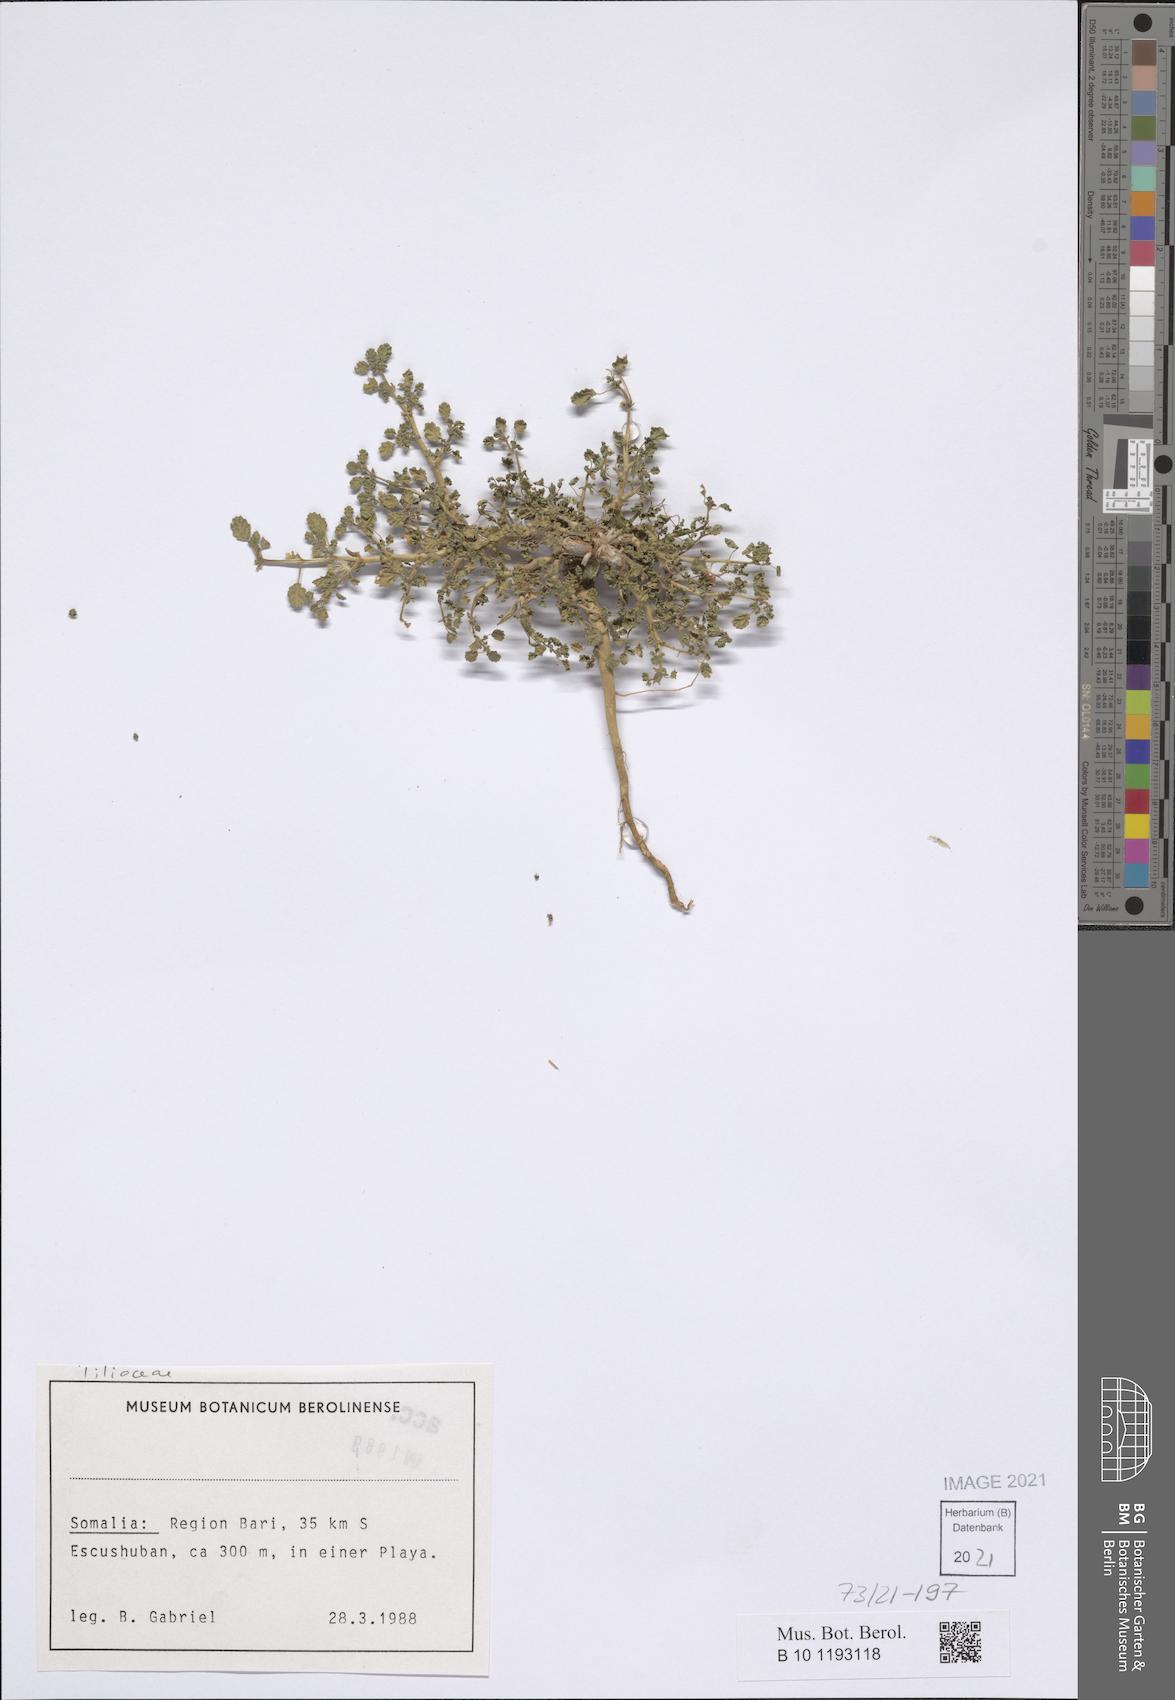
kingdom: Plantae
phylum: Tracheophyta
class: Magnoliopsida
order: Malvales
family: Tiliaceae
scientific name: Tiliaceae
